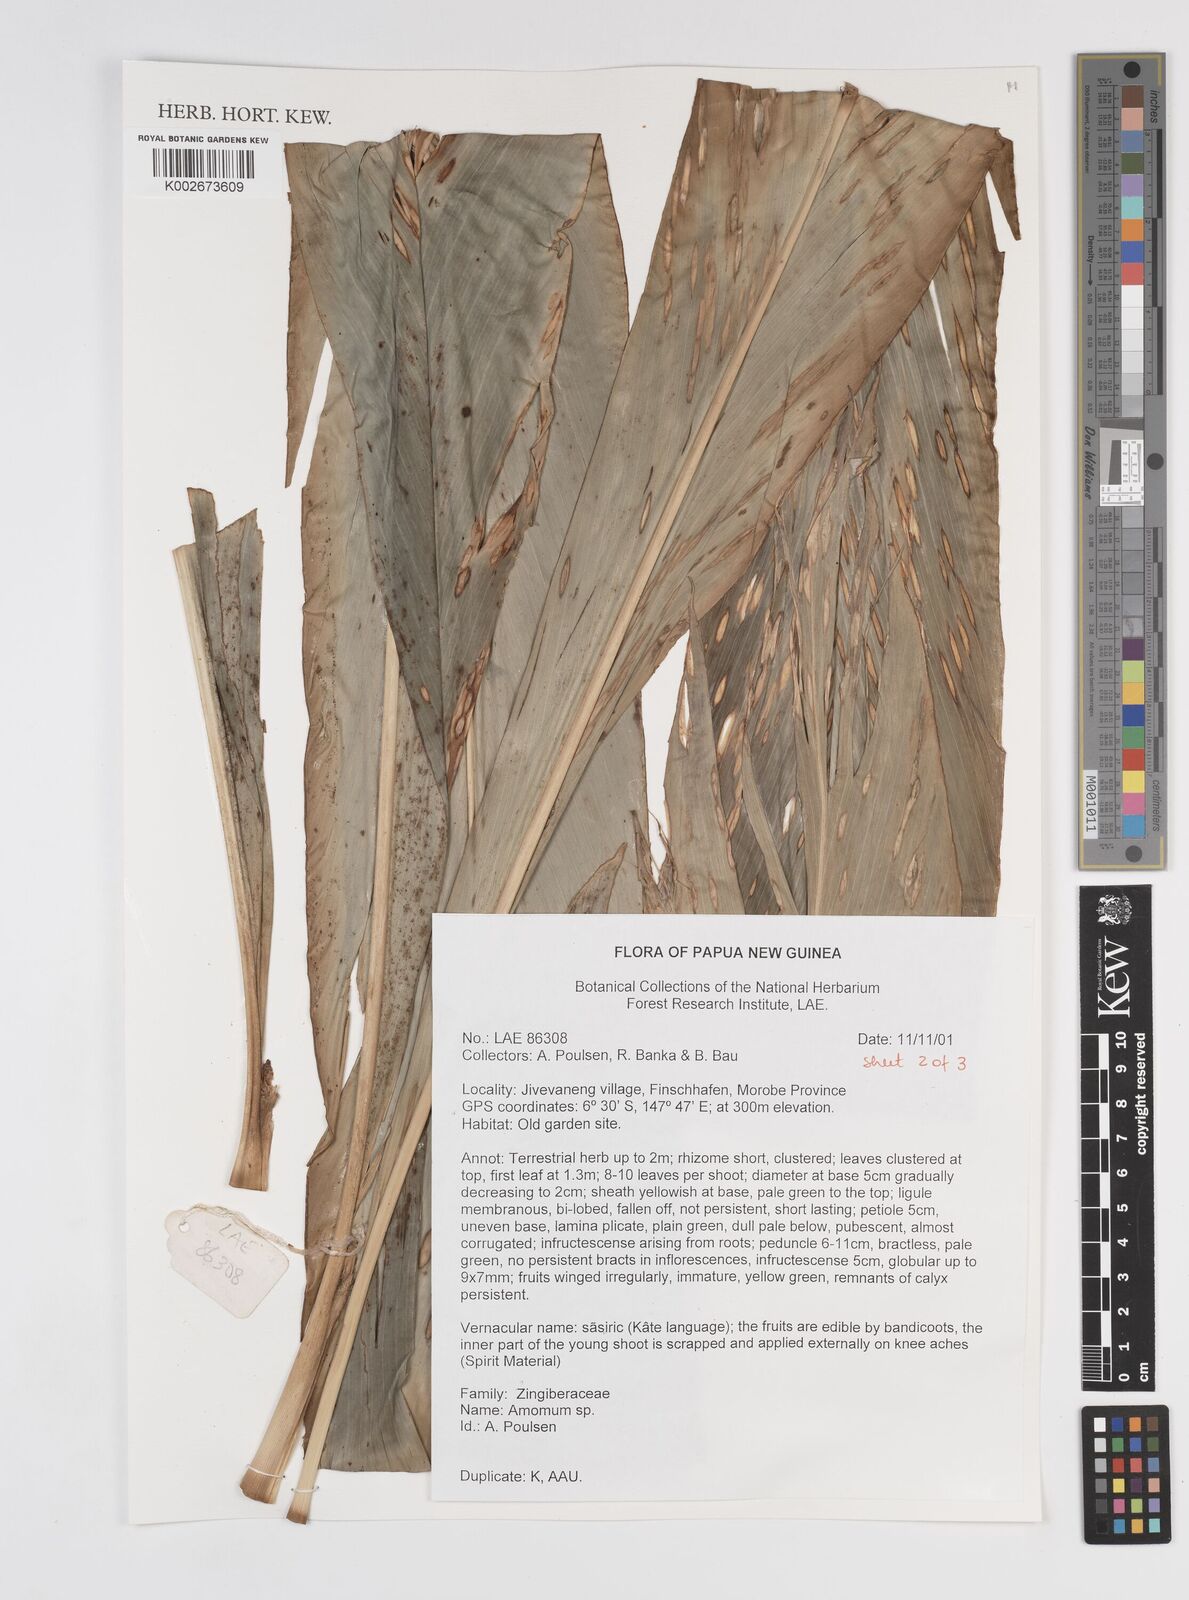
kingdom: Plantae
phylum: Tracheophyta
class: Liliopsida
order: Zingiberales
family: Zingiberaceae
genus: Amomum
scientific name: Amomum
